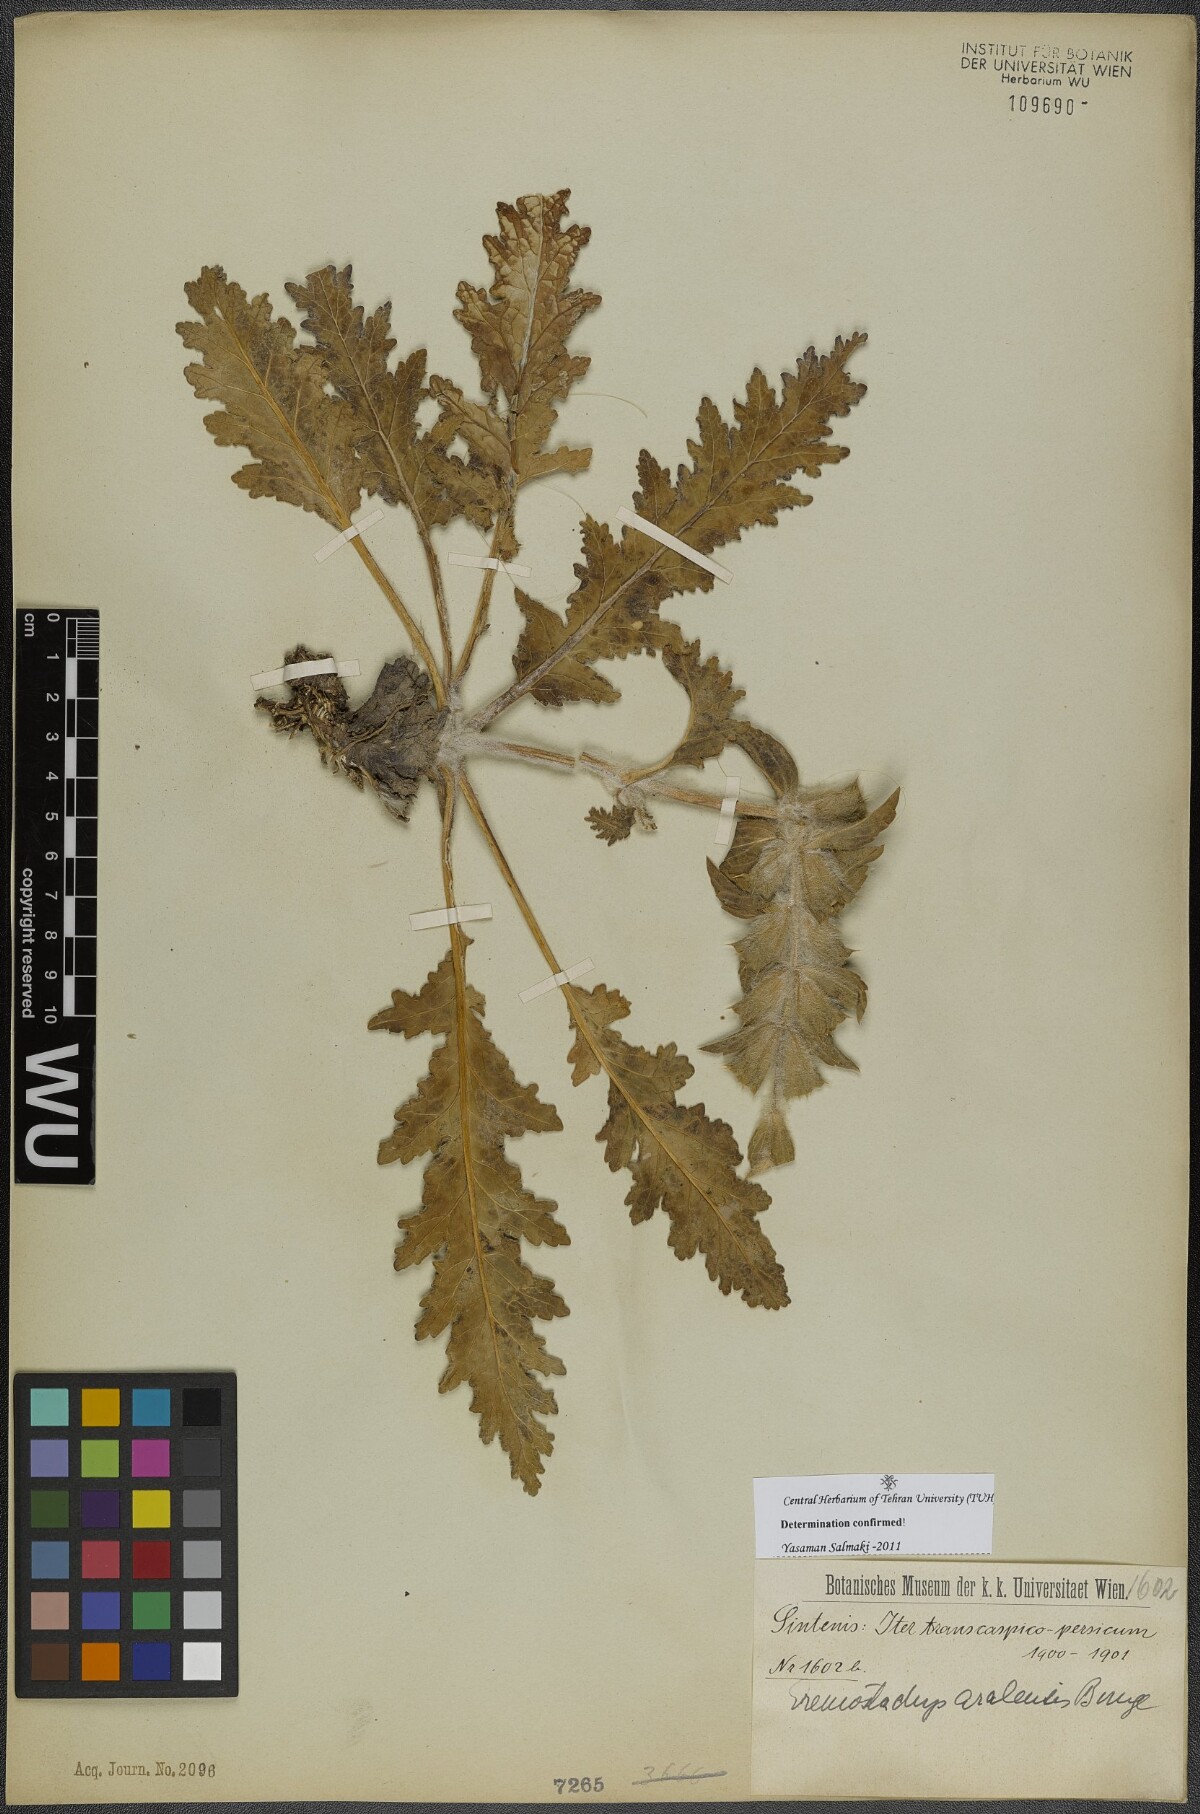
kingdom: Plantae
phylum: Tracheophyta
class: Magnoliopsida
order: Lamiales
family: Lamiaceae
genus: Phlomoides
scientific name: Phlomoides aralensis
